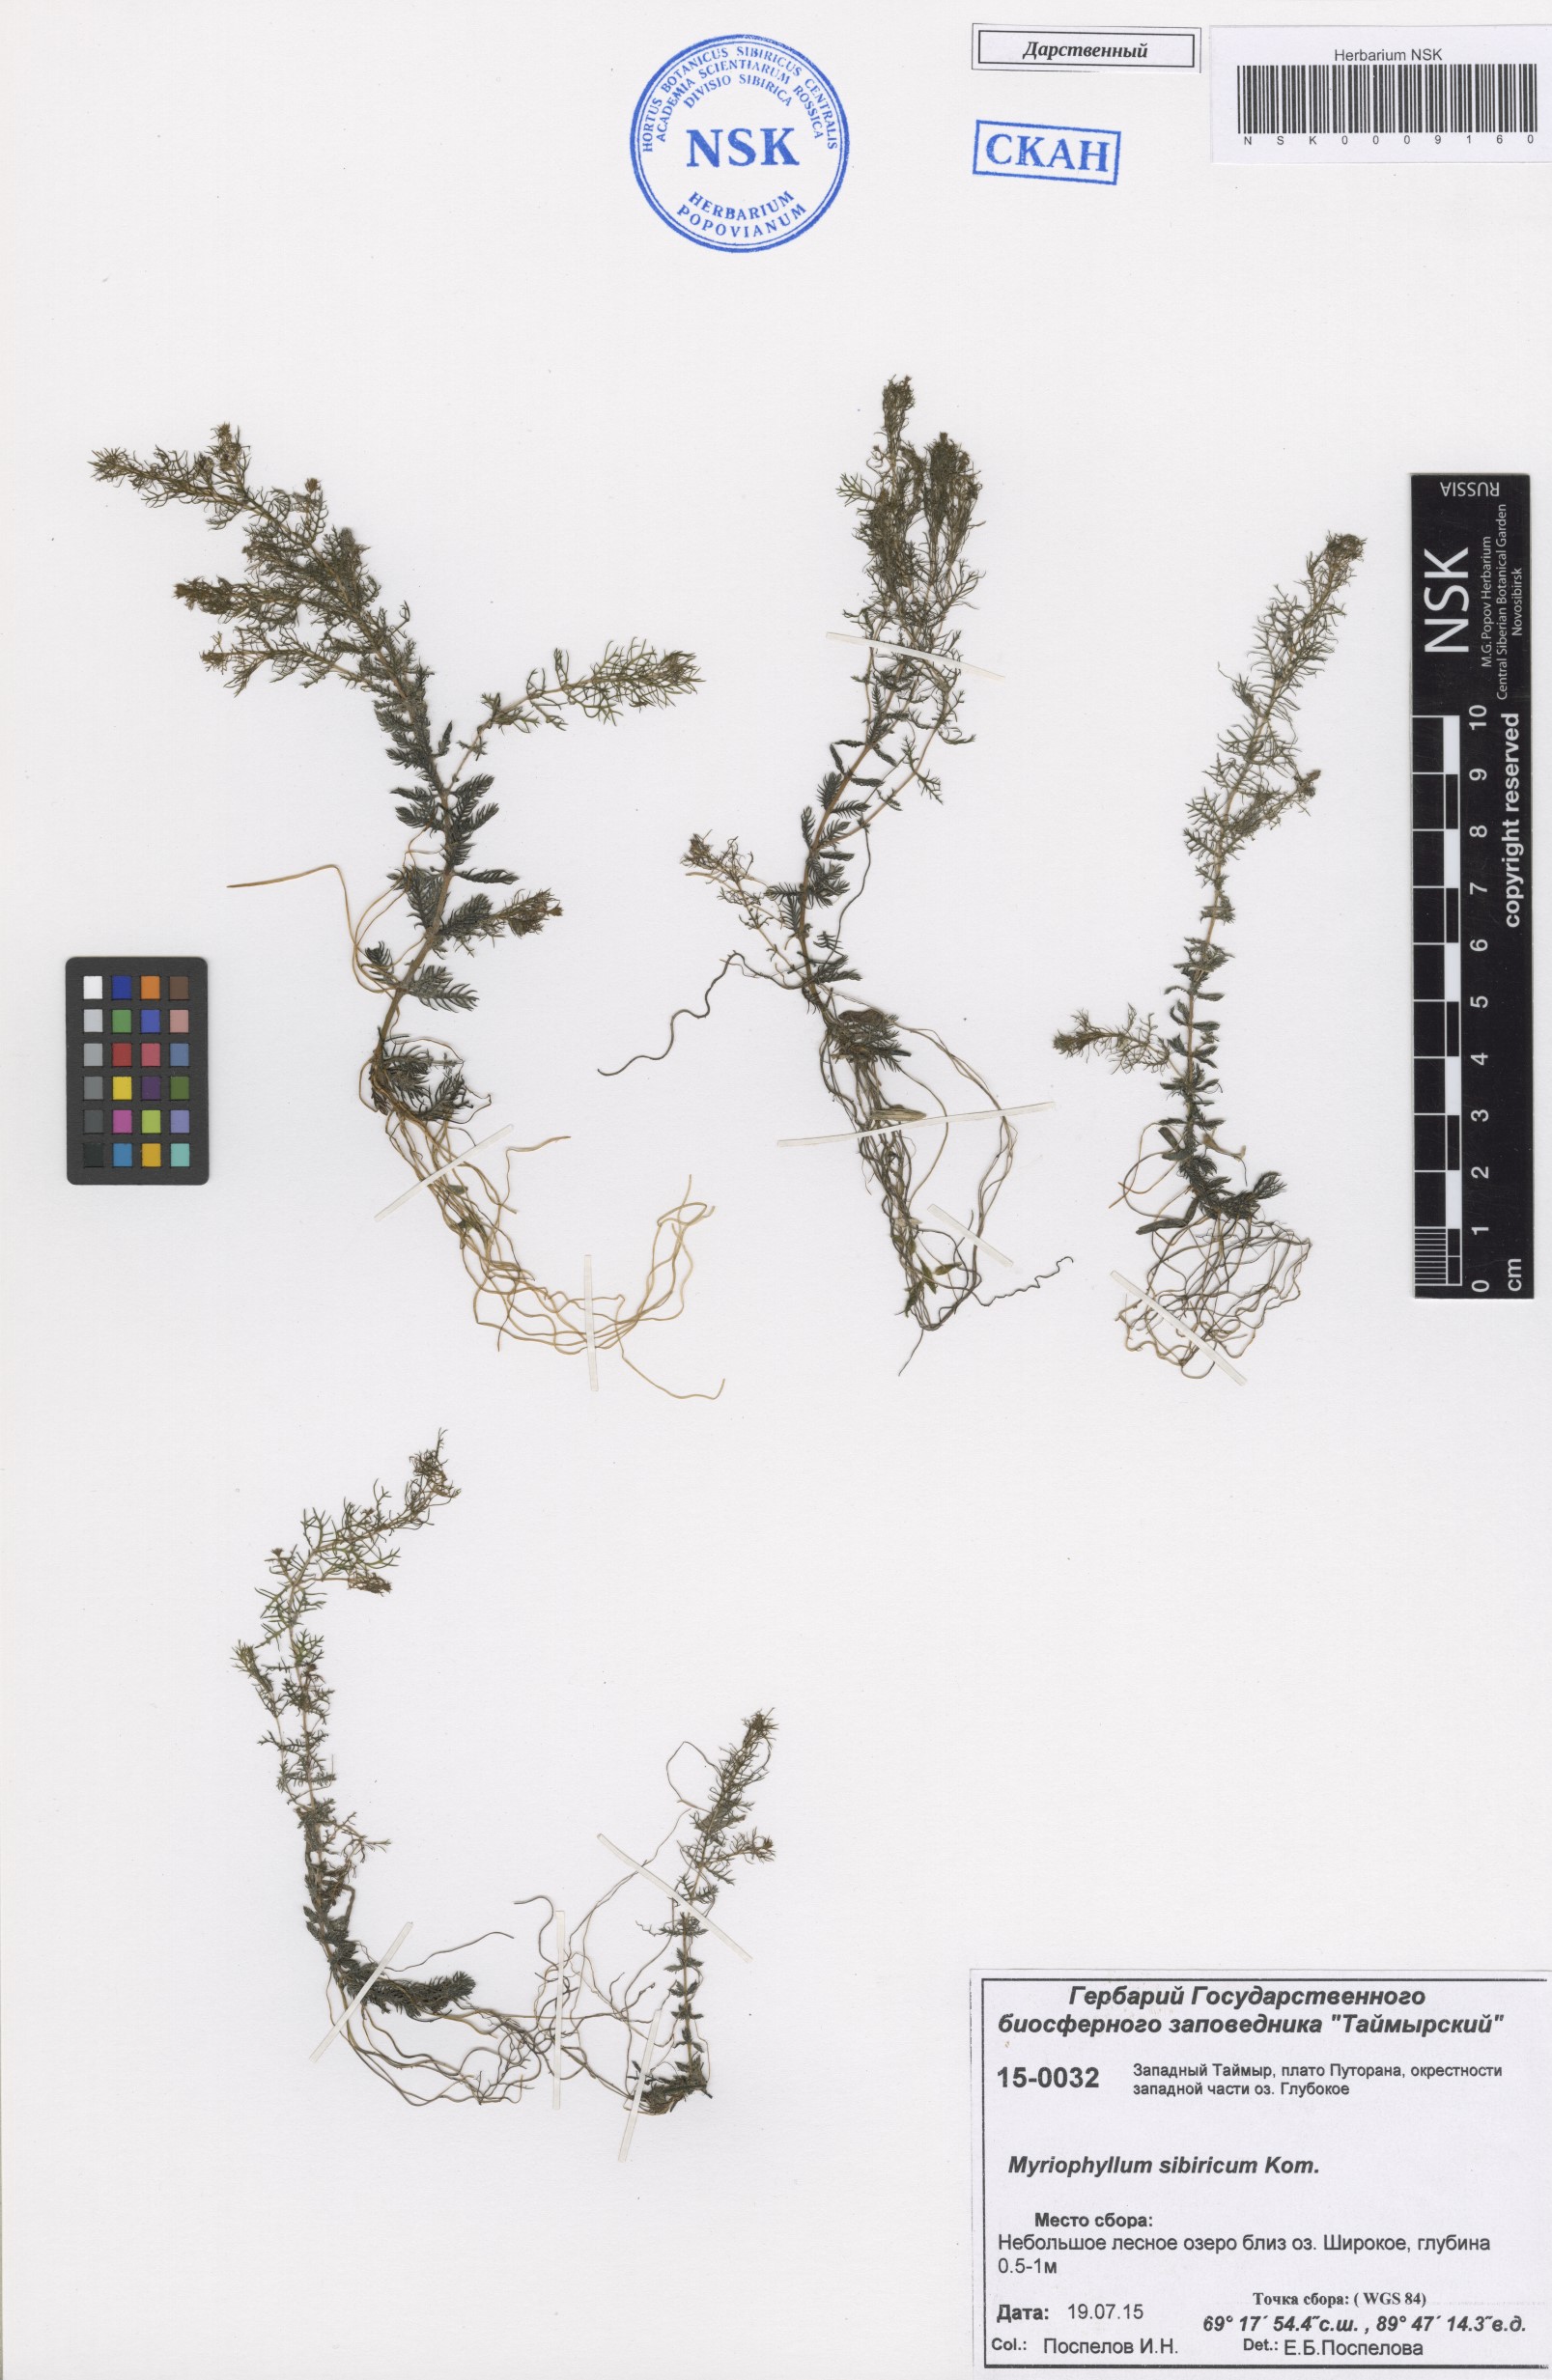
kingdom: Plantae
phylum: Tracheophyta
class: Magnoliopsida
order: Saxifragales
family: Haloragaceae
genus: Myriophyllum
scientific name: Myriophyllum sibiricum
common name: Siberian water-milfoil
